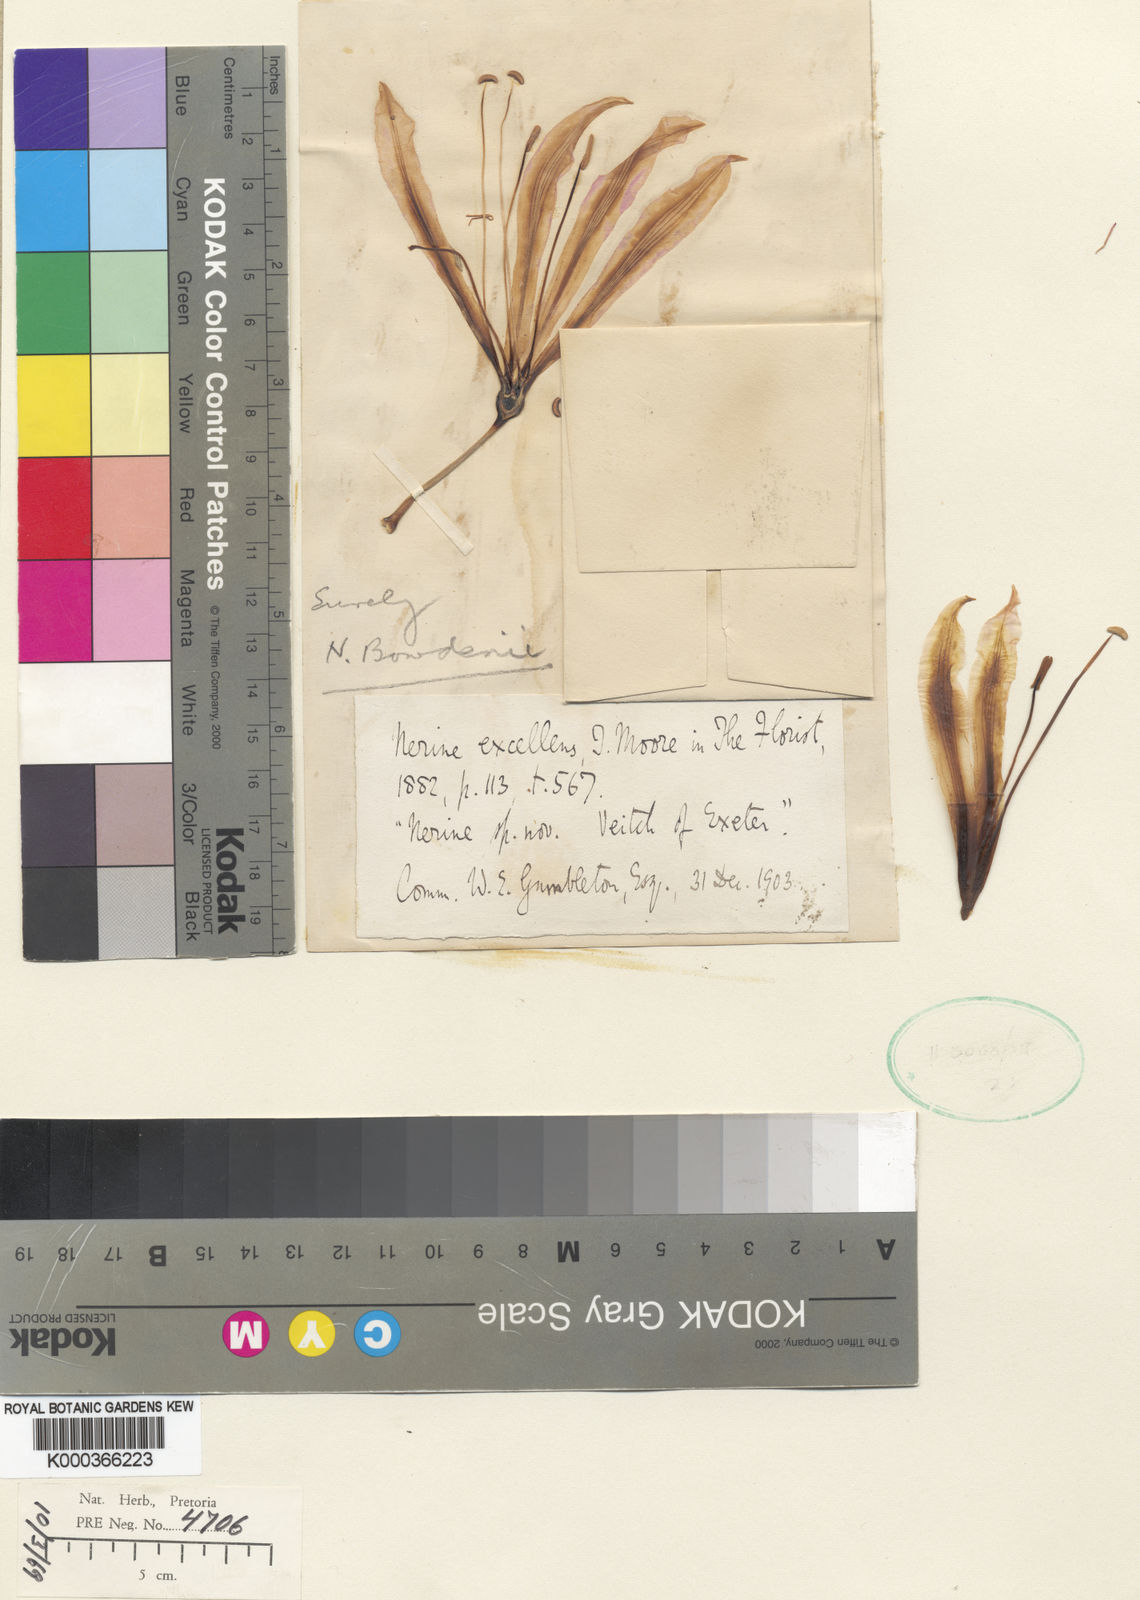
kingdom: Plantae
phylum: Tracheophyta
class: Liliopsida
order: Asparagales
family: Amaryllidaceae
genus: Nerine
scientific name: Nerine bowdenii
